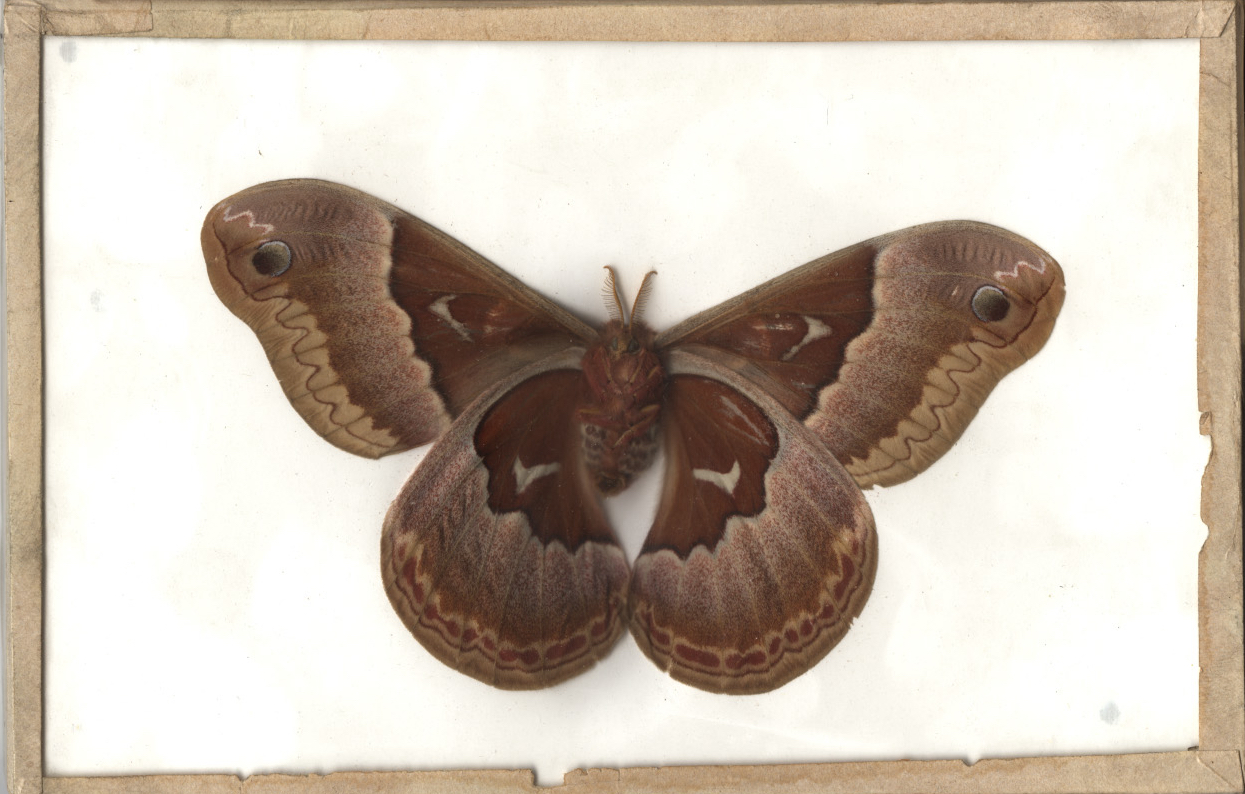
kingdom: Animalia
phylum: Arthropoda
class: Insecta
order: Lepidoptera
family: Saturniidae
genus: Callosamia
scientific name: Callosamia promethea
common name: Promethea Moth
